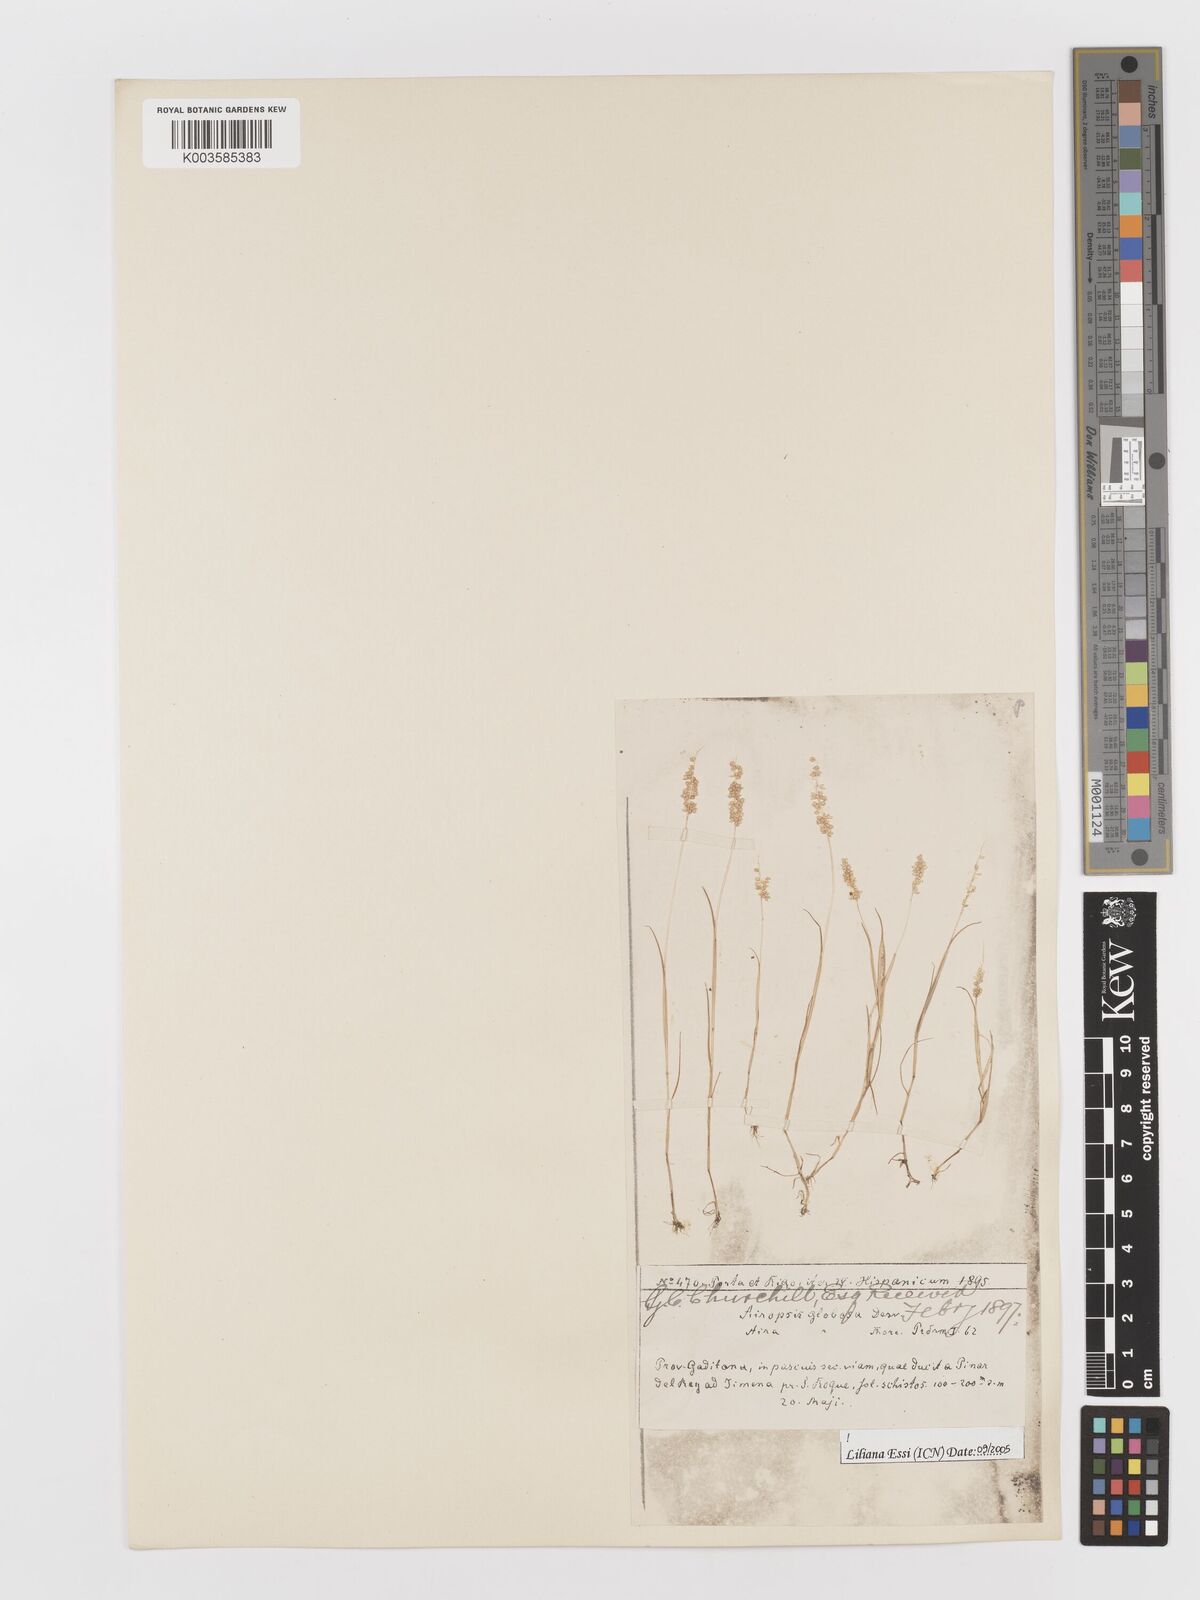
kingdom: Plantae
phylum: Tracheophyta
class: Liliopsida
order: Poales
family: Poaceae
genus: Airopsis
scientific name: Airopsis tenella
